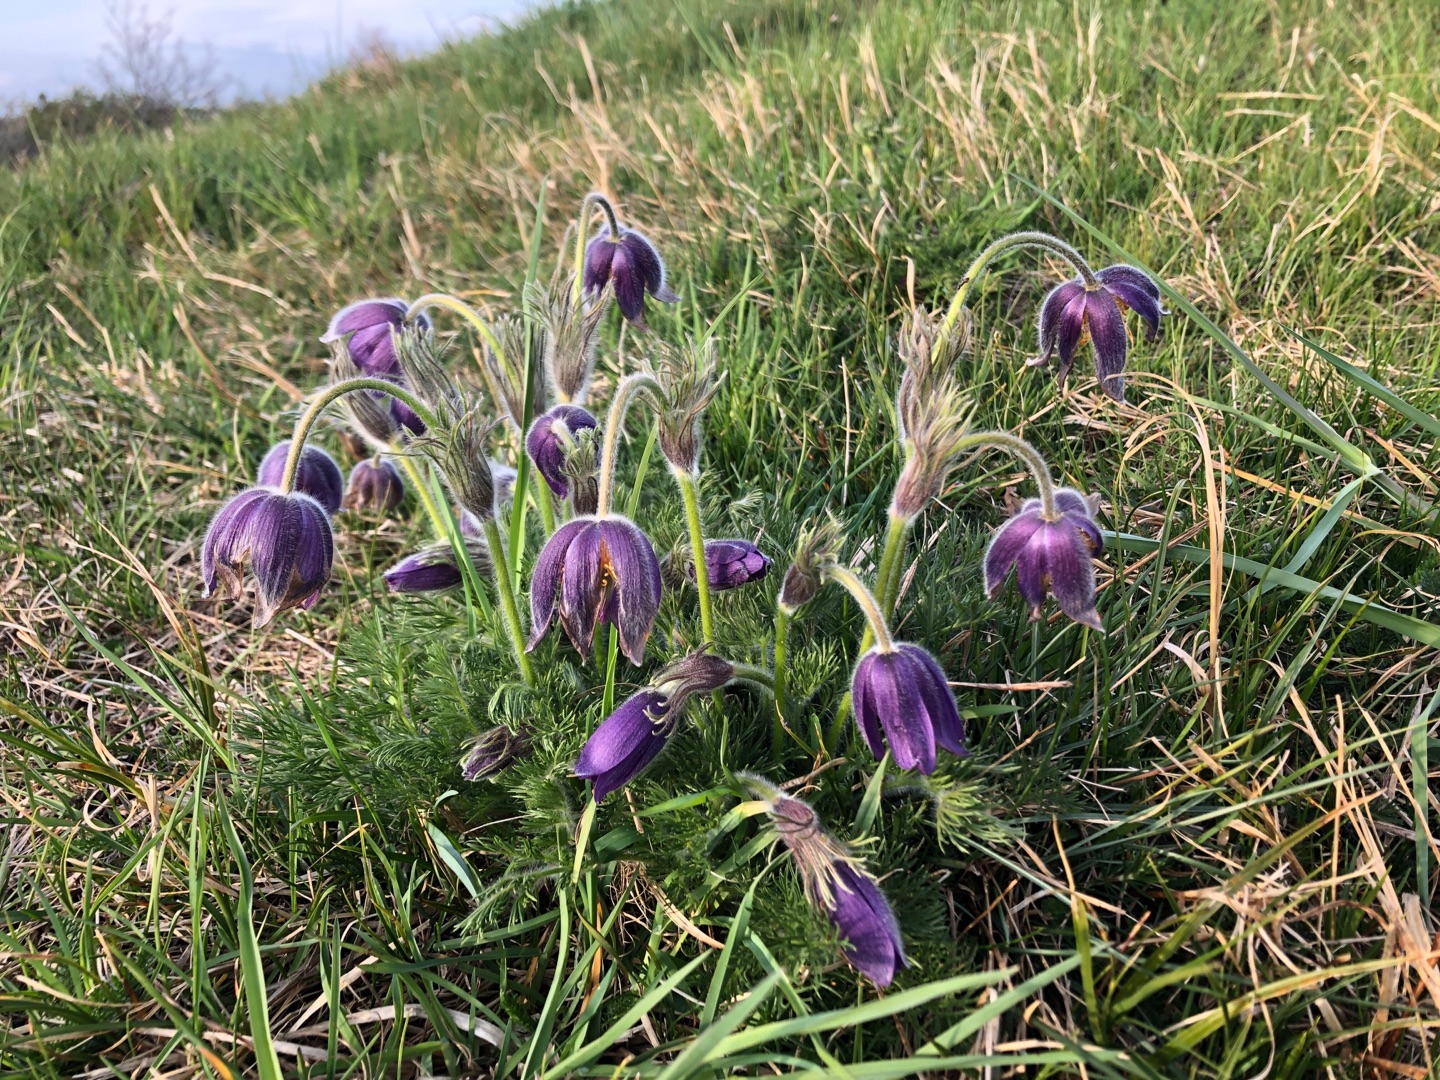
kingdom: Plantae
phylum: Tracheophyta
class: Magnoliopsida
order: Ranunculales
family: Ranunculaceae
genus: Pulsatilla
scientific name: Pulsatilla vulgaris
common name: Opret kobjælde
